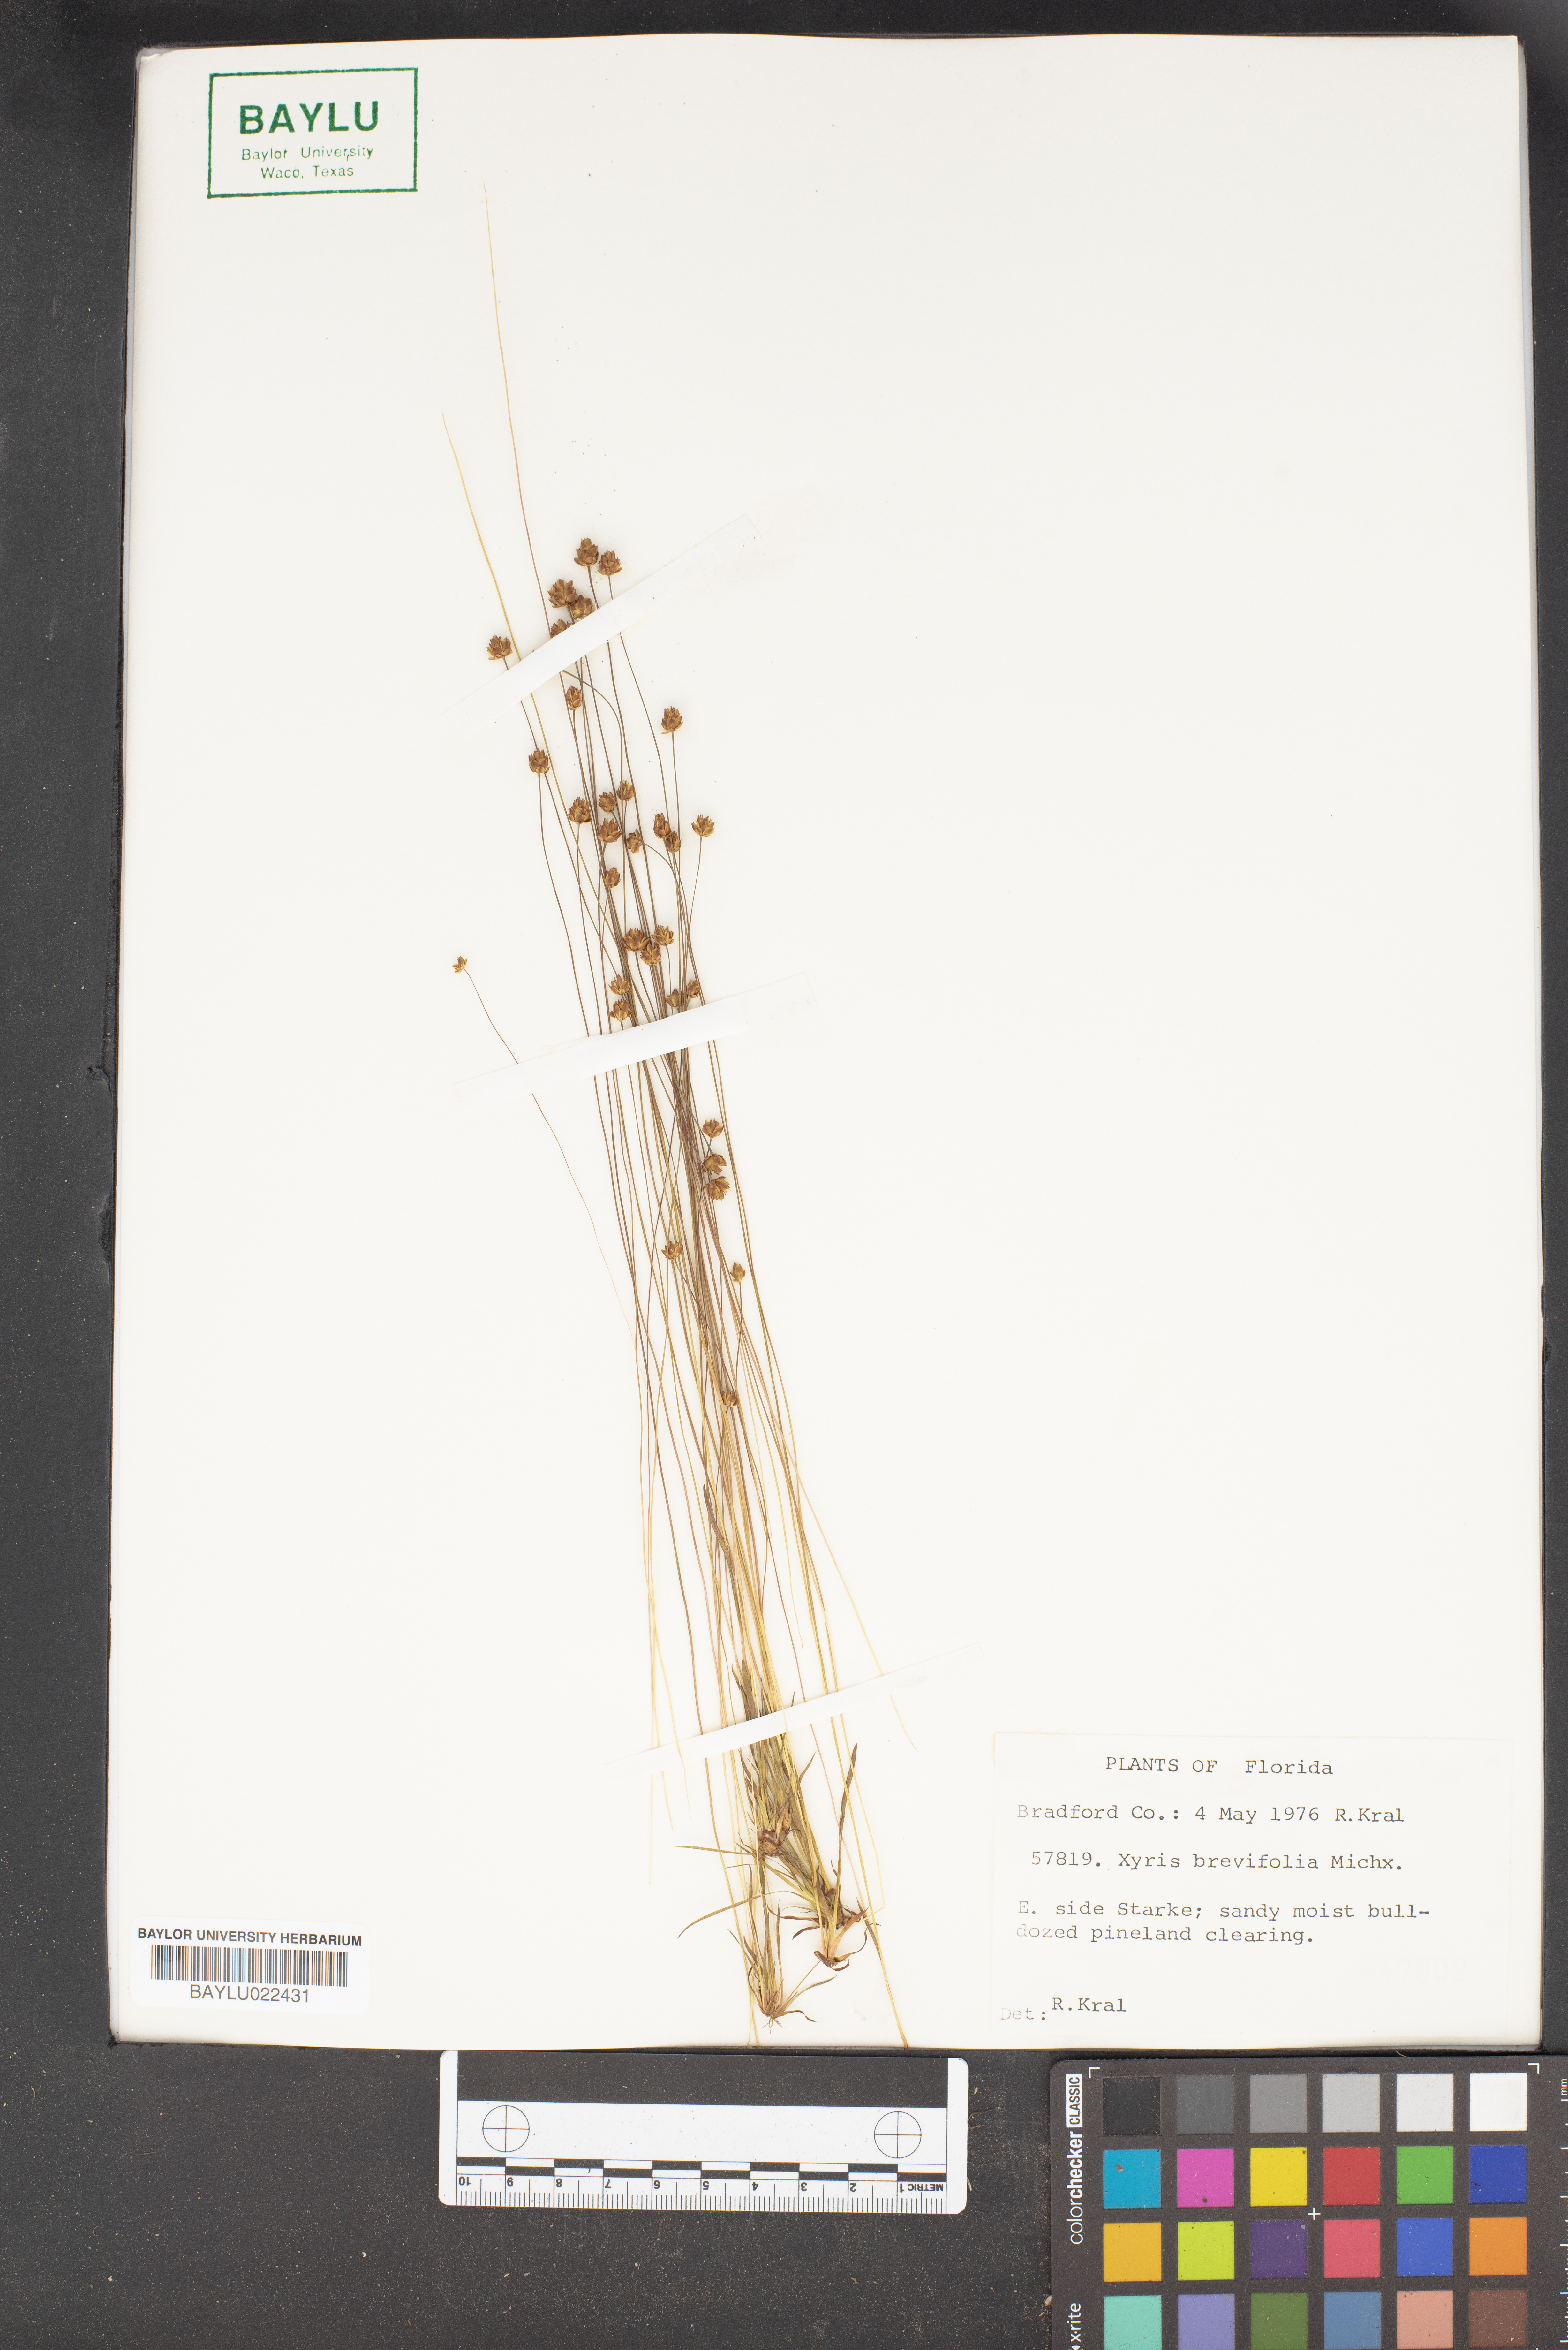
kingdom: Plantae
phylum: Tracheophyta
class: Liliopsida
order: Poales
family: Xyridaceae
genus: Xyris
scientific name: Xyris brevifolia
